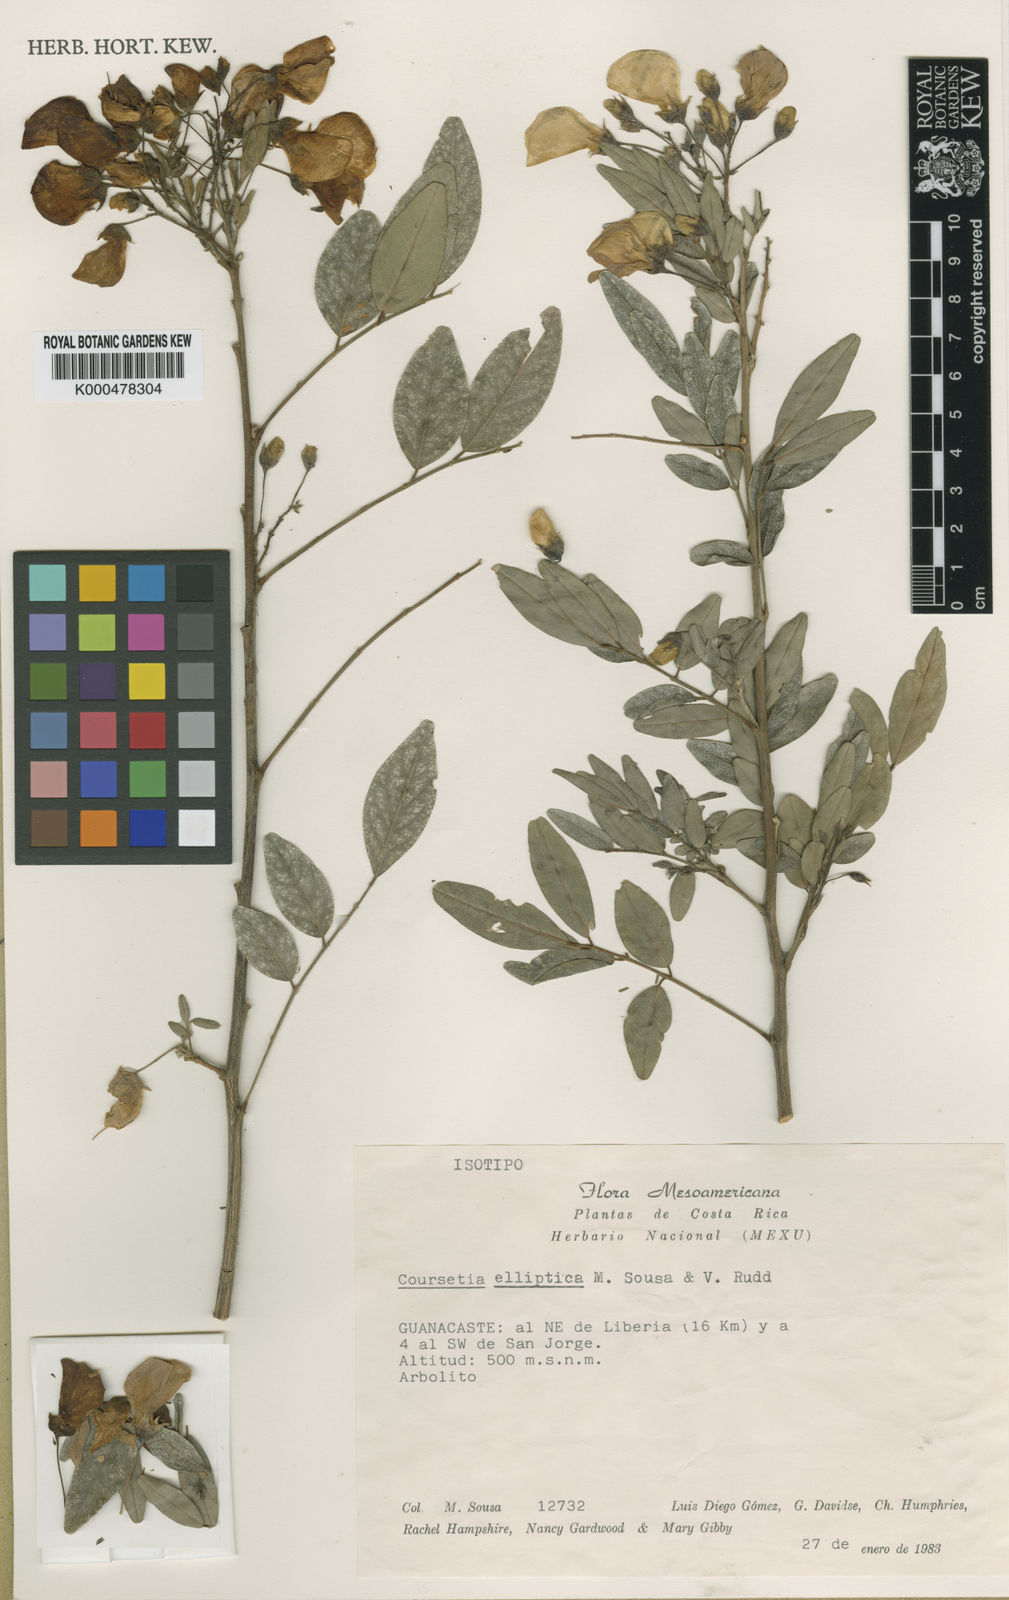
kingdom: Plantae
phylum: Tracheophyta
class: Magnoliopsida
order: Fabales
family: Fabaceae
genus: Coursetia
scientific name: Coursetia elliptica
